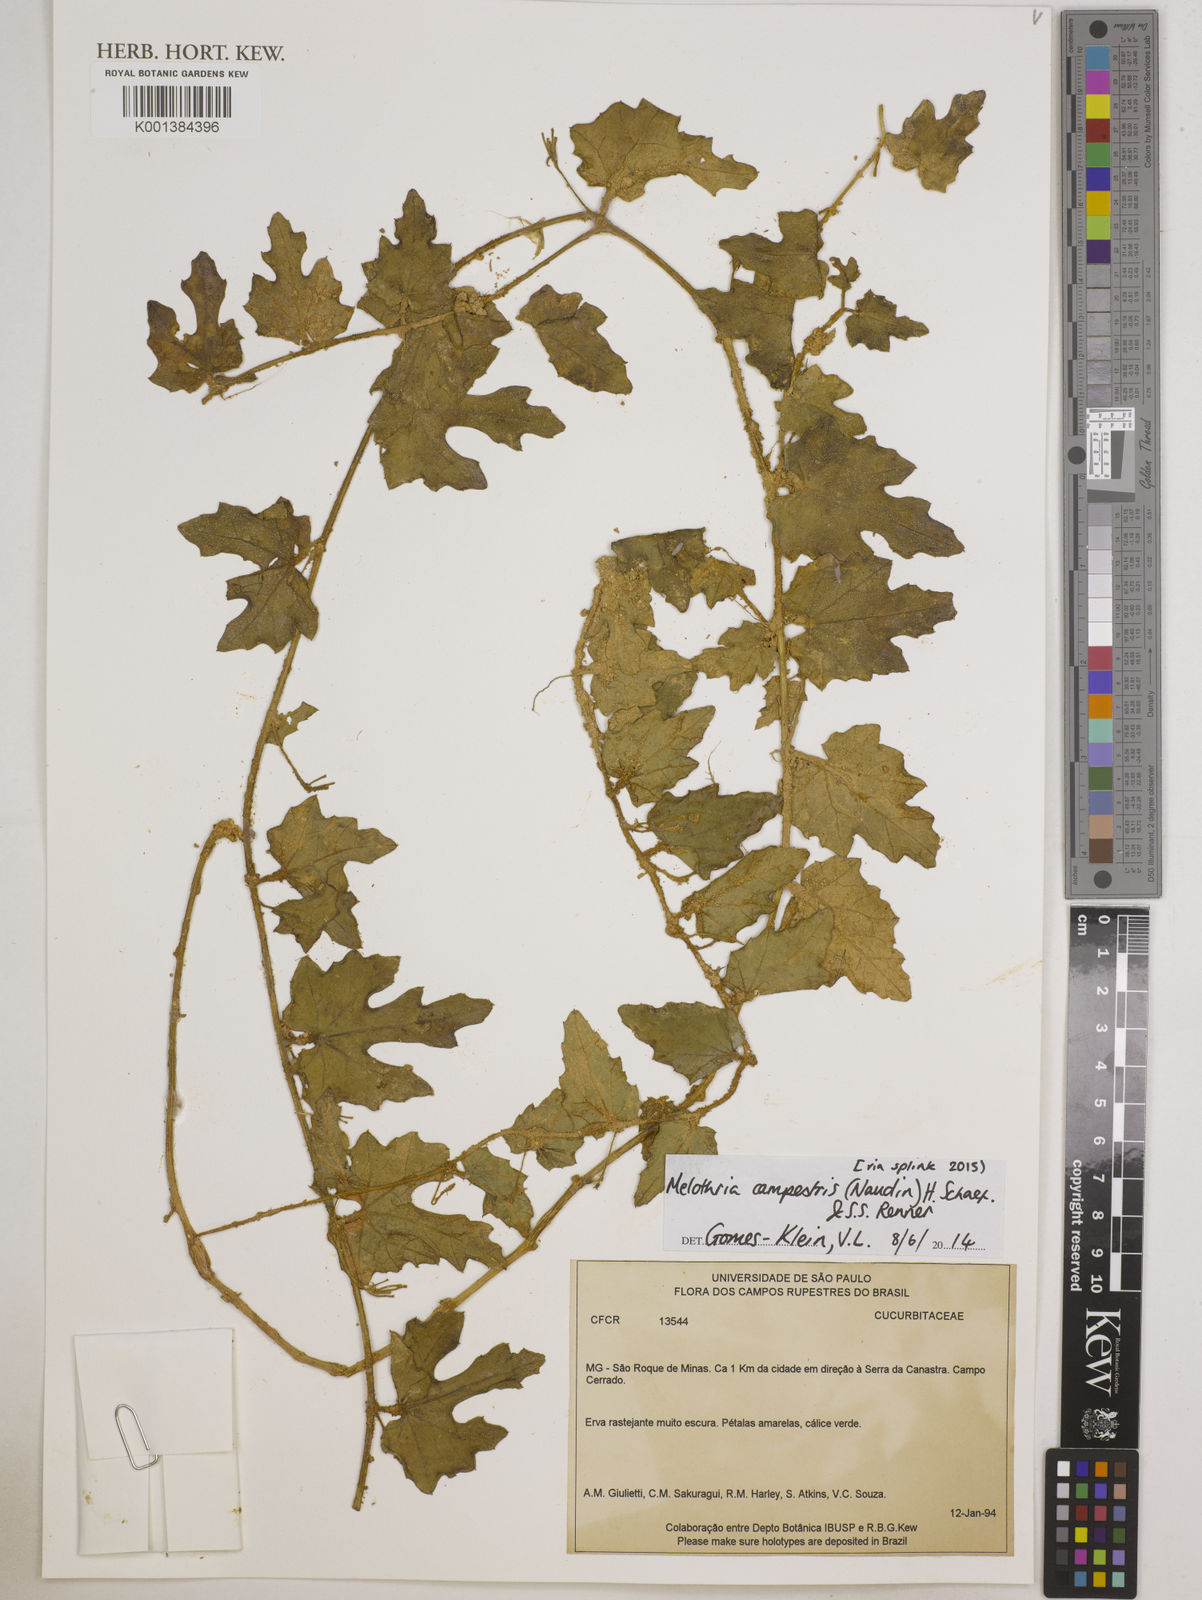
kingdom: Plantae
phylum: Tracheophyta
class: Magnoliopsida
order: Cucurbitales
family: Cucurbitaceae
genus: Melothria
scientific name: Melothria campestris
